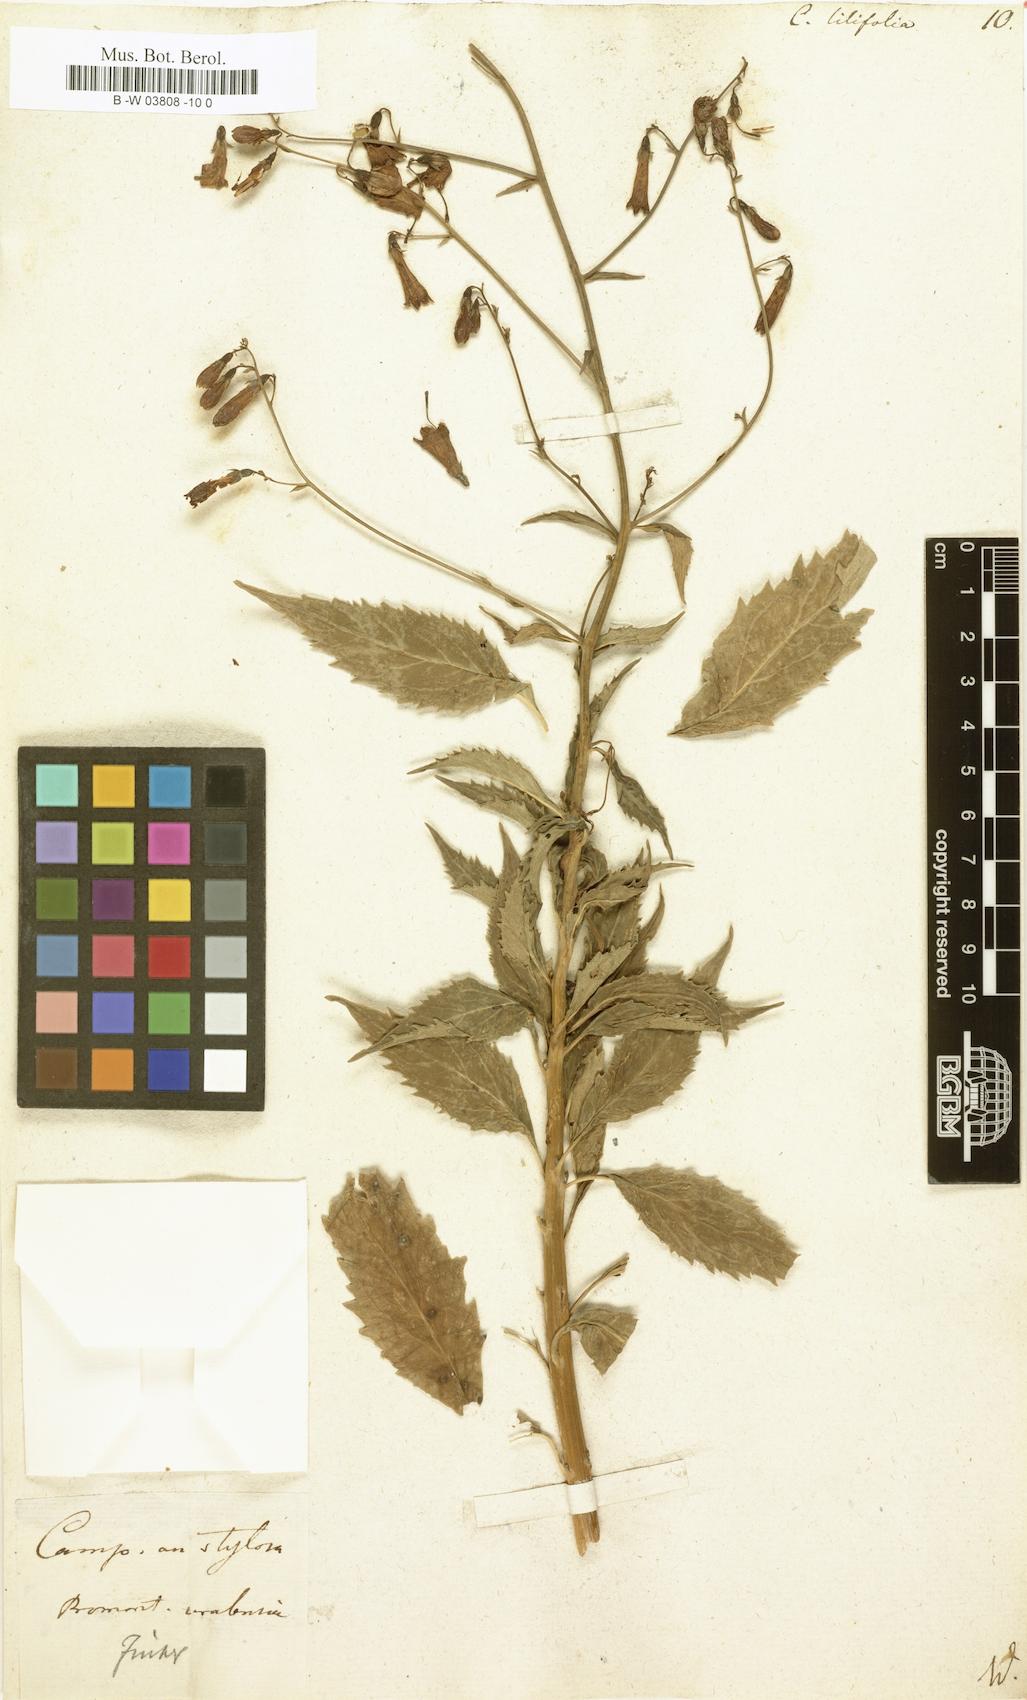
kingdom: Plantae
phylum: Tracheophyta
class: Magnoliopsida
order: Asterales
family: Campanulaceae
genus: Campanula
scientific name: Campanula lilifolia
